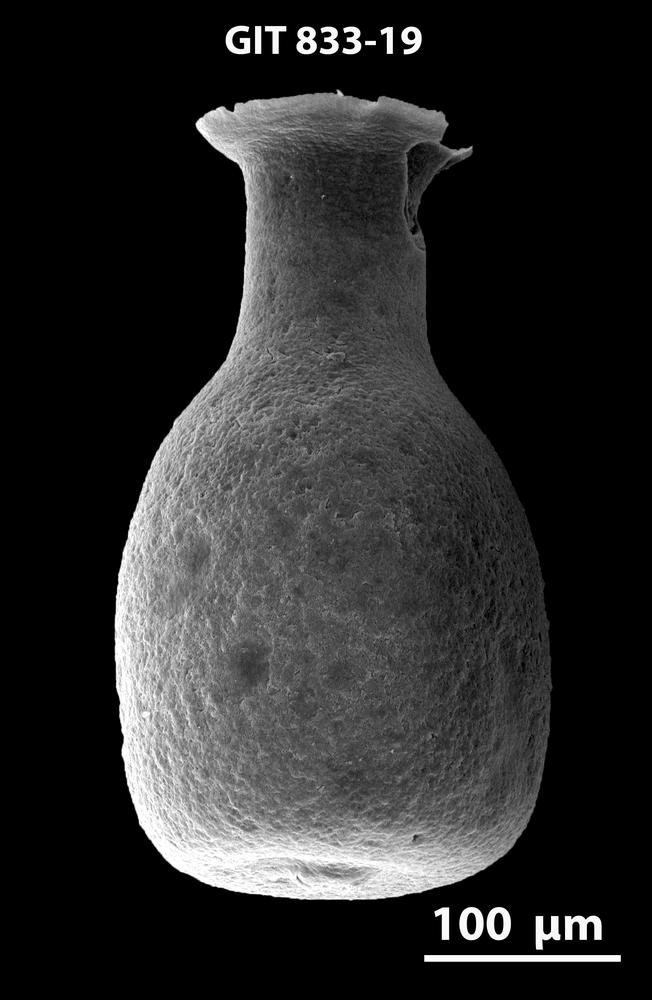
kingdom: Animalia
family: Lagenochitinidae
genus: Lagenochitina
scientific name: Lagenochitina
